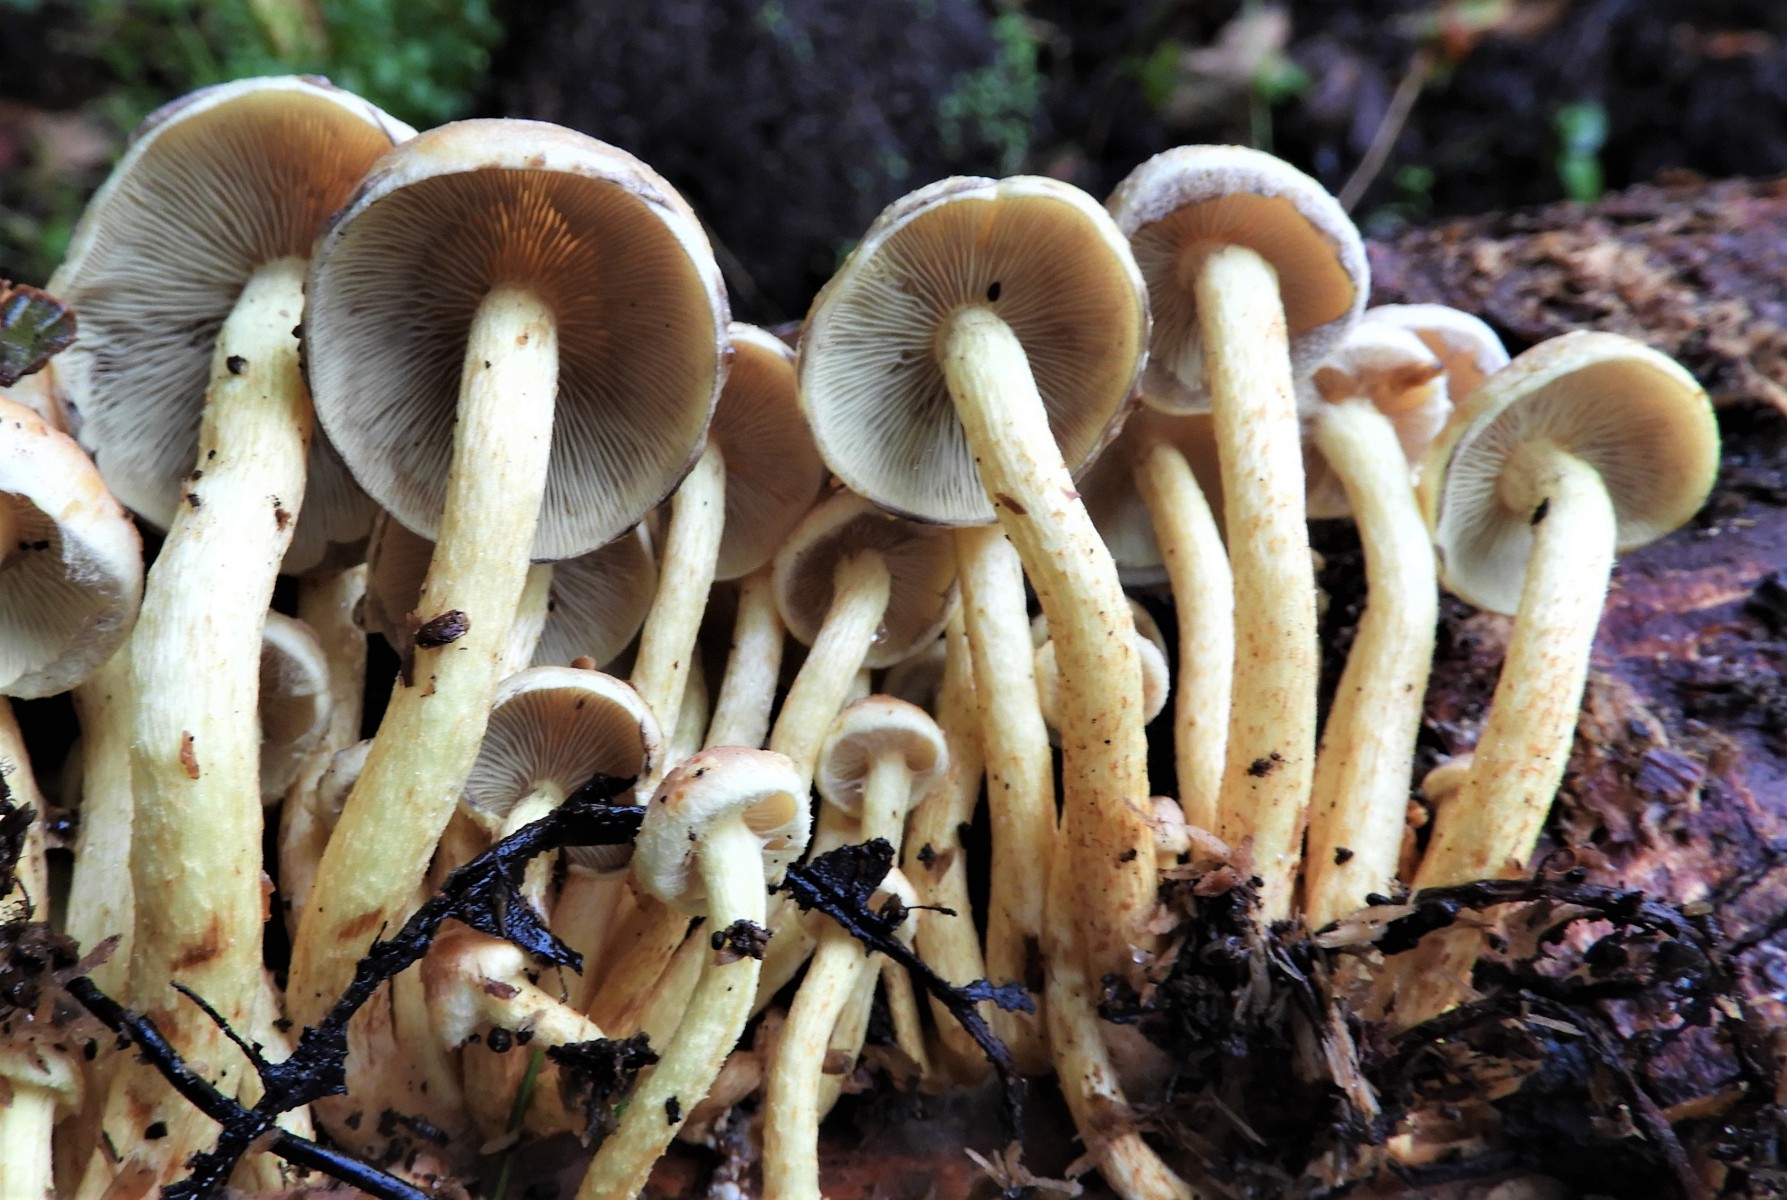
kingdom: Fungi
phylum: Basidiomycota
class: Agaricomycetes
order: Agaricales
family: Strophariaceae
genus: Hypholoma
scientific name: Hypholoma fasciculare
